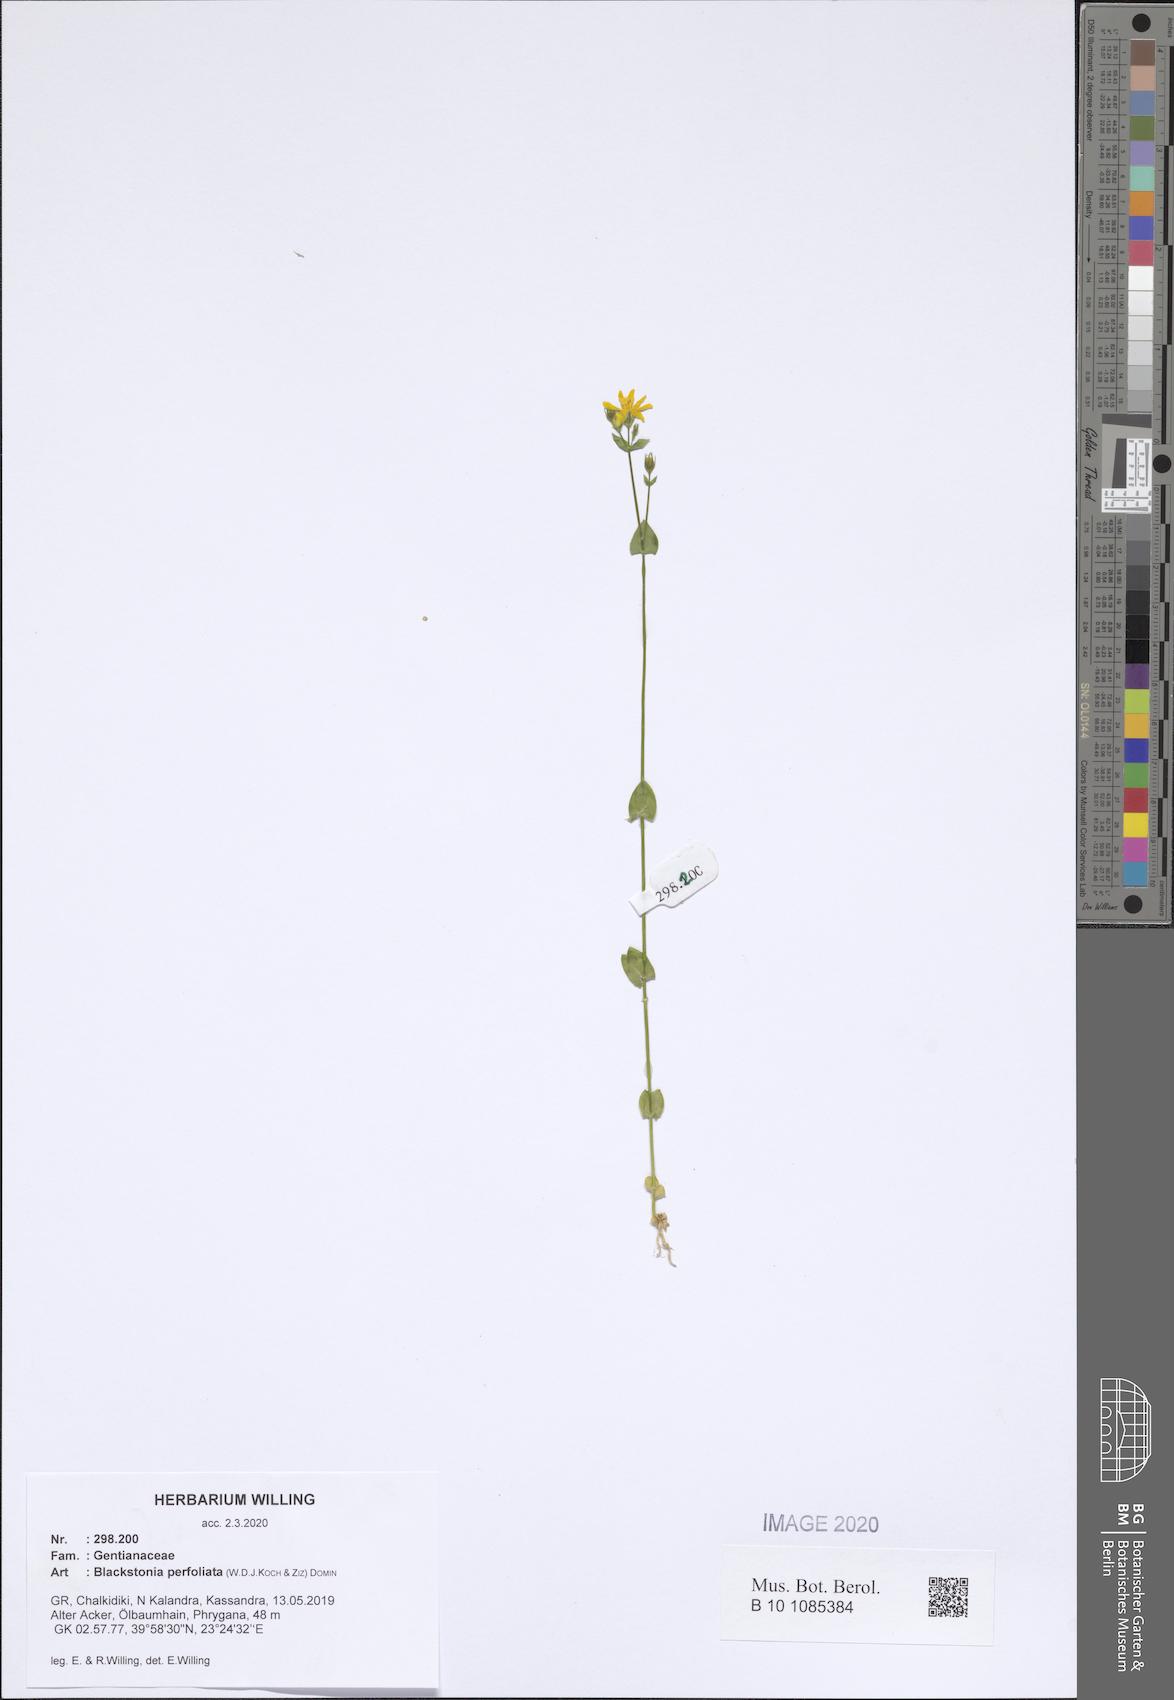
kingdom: Plantae
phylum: Tracheophyta
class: Magnoliopsida
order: Gentianales
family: Gentianaceae
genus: Blackstonia
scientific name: Blackstonia perfoliata
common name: Yellow-wort
